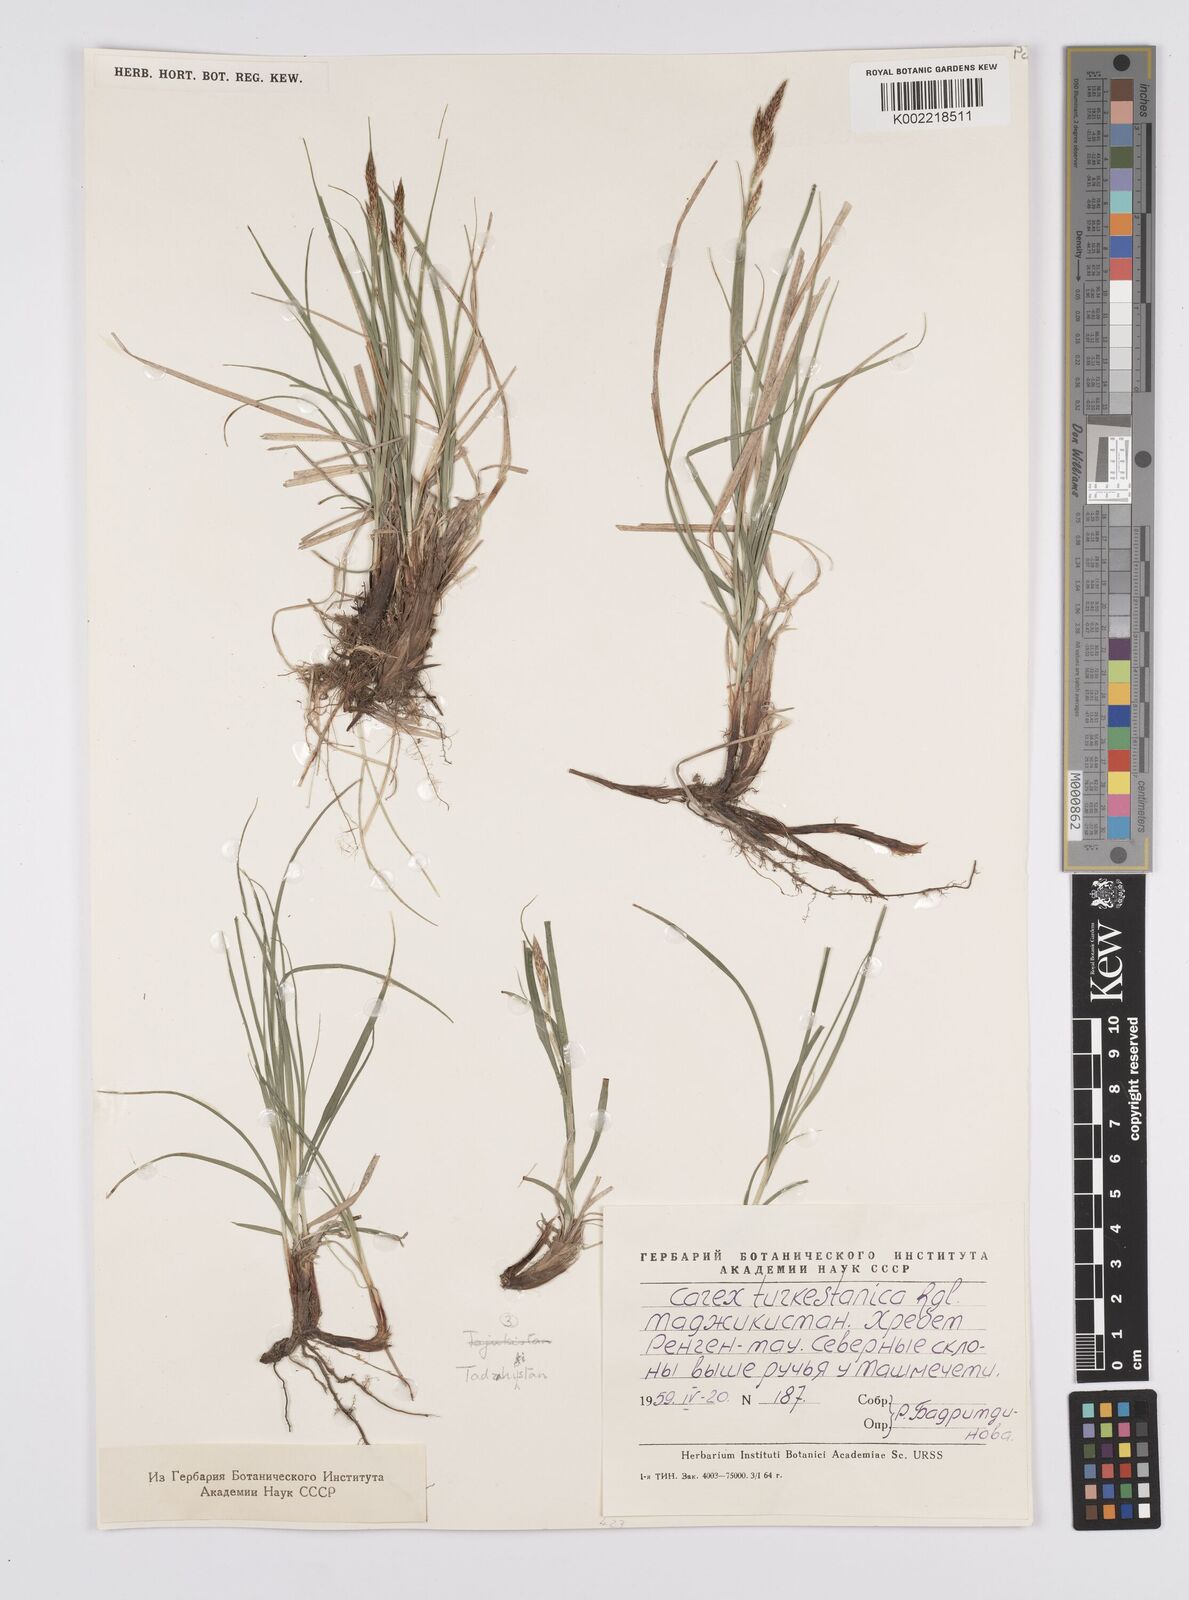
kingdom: Plantae
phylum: Tracheophyta
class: Liliopsida
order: Poales
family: Cyperaceae
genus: Carex
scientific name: Carex liparocarpos
